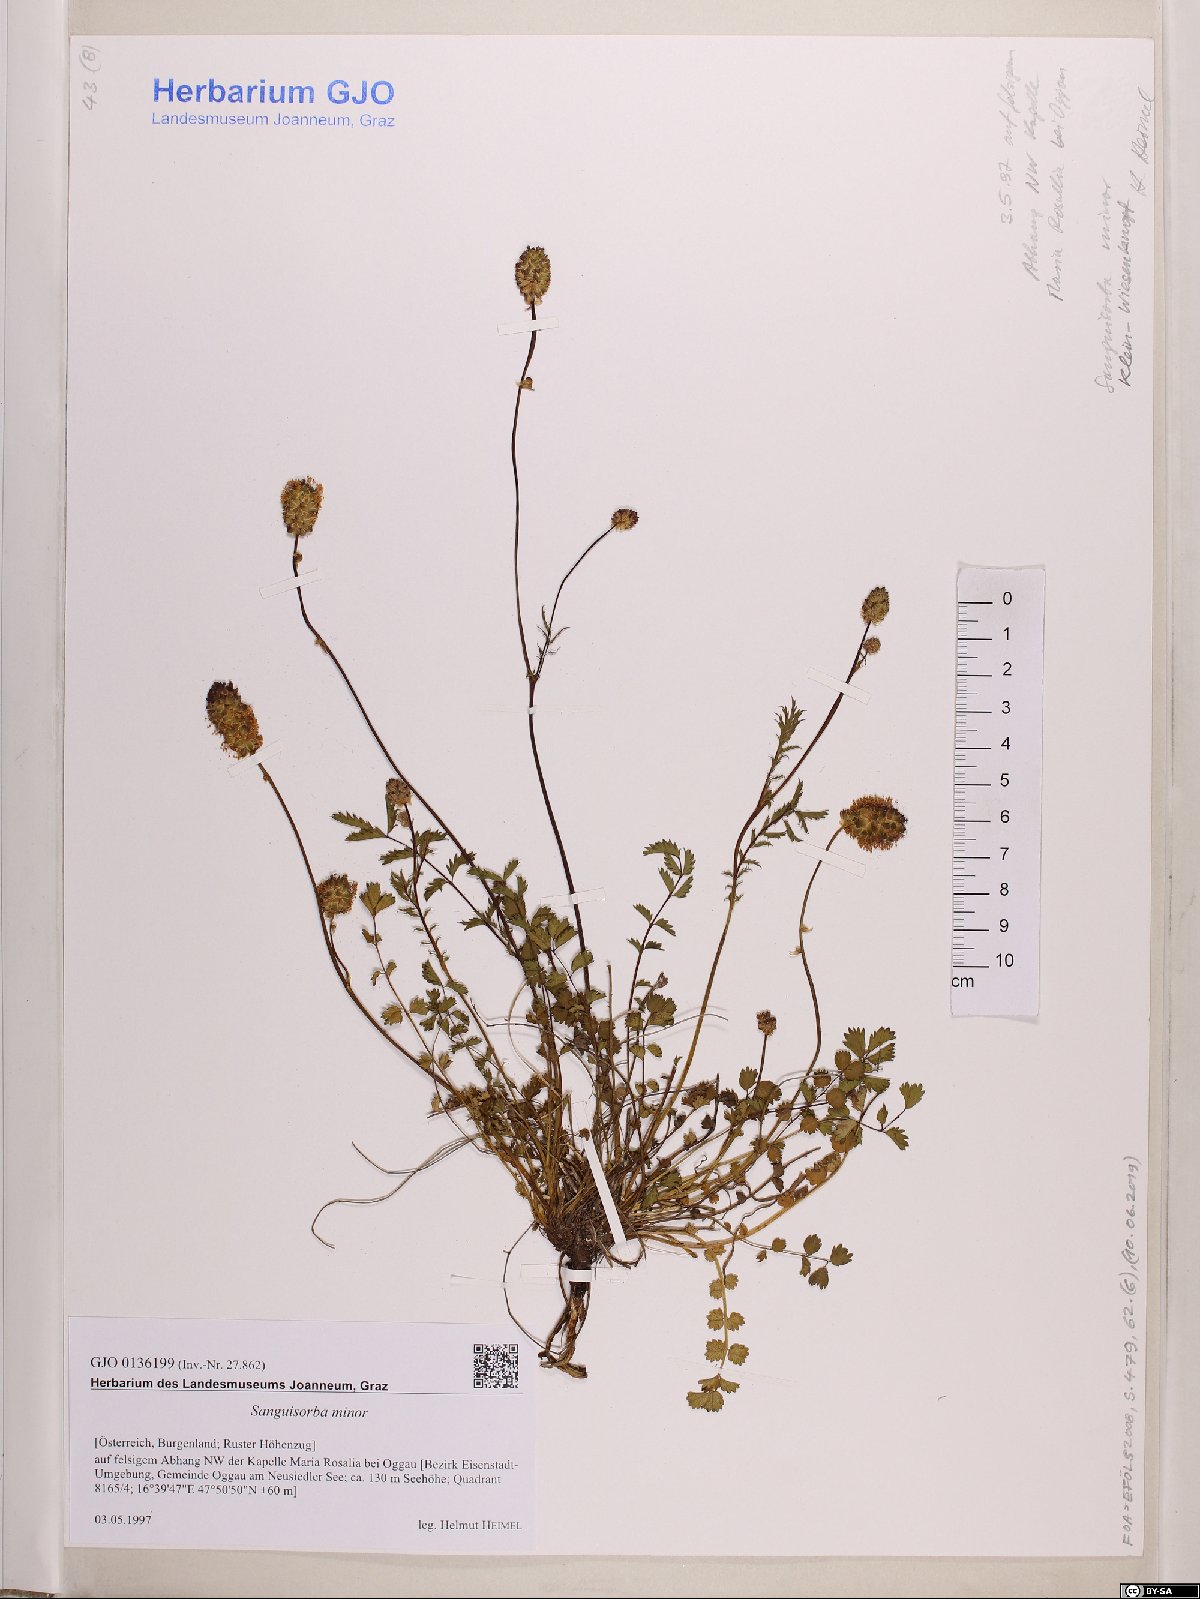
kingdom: Plantae
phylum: Tracheophyta
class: Magnoliopsida
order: Rosales
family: Rosaceae
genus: Poterium
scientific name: Poterium sanguisorba
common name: Salad burnet
